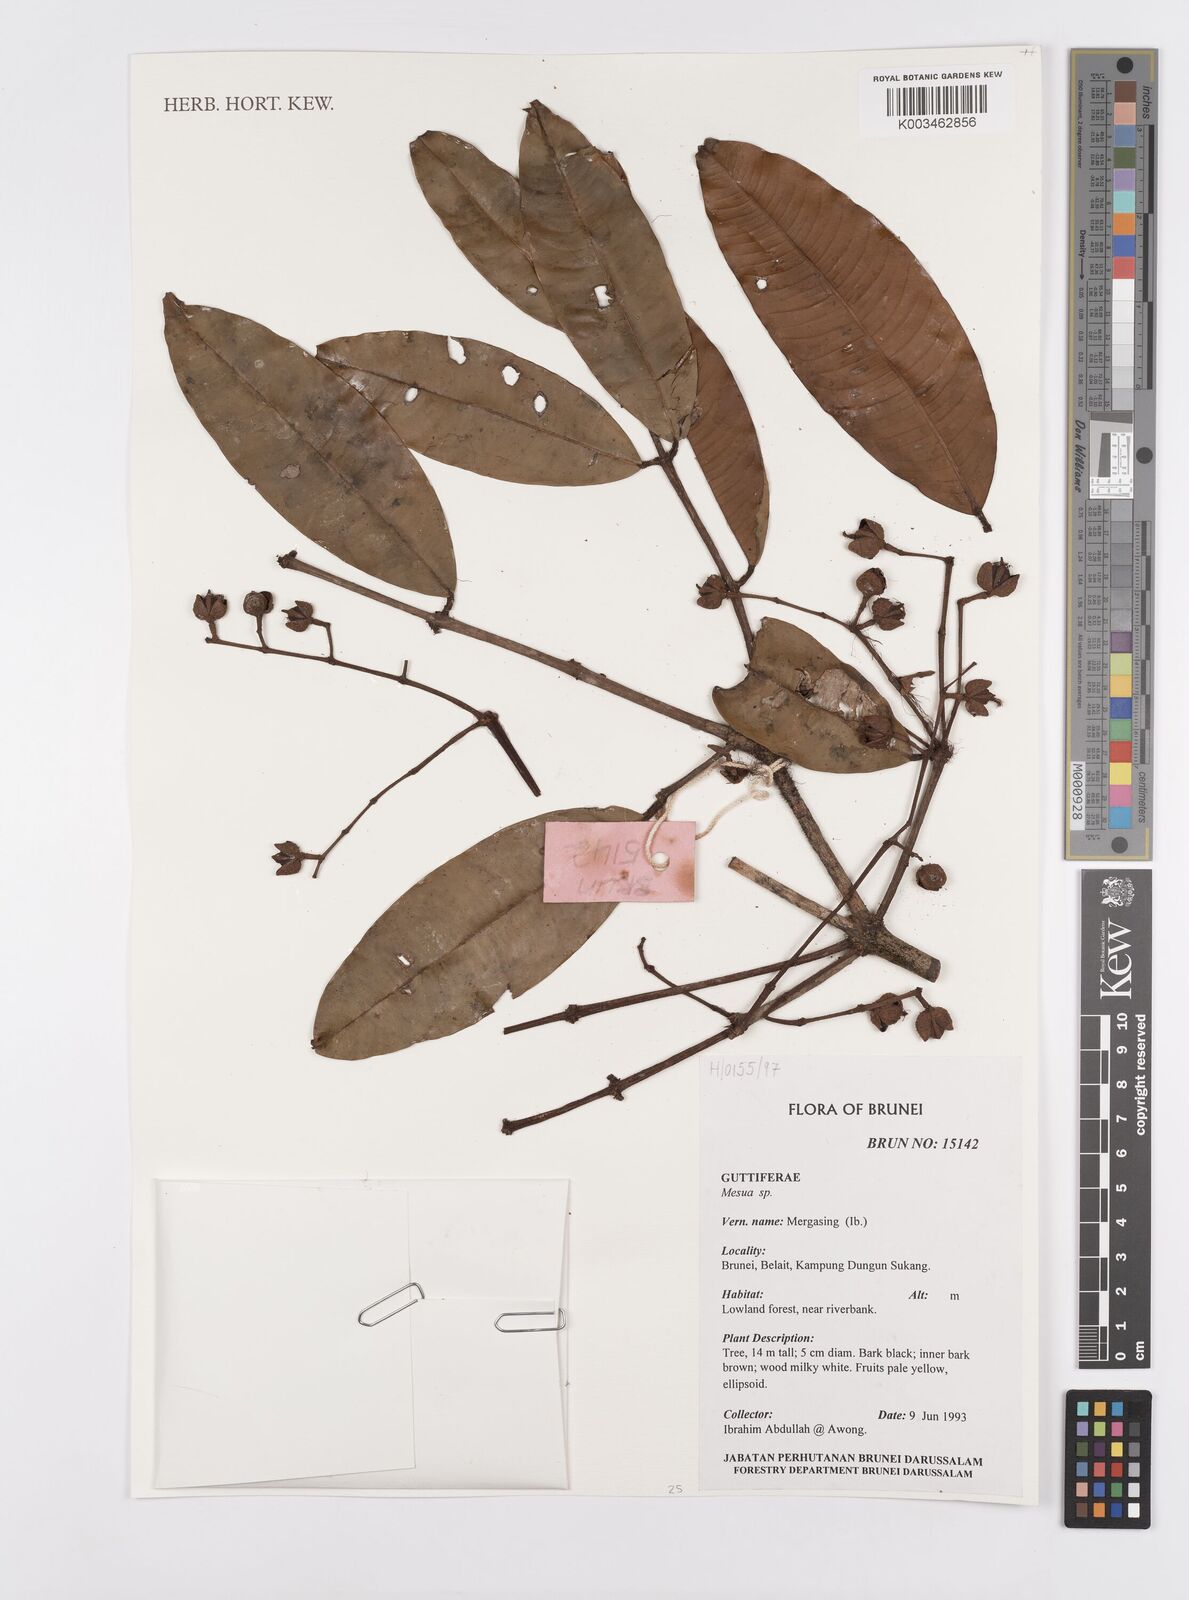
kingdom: Plantae
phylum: Tracheophyta
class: Magnoliopsida
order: Malpighiales
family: Calophyllaceae
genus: Mesua
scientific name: Mesua
